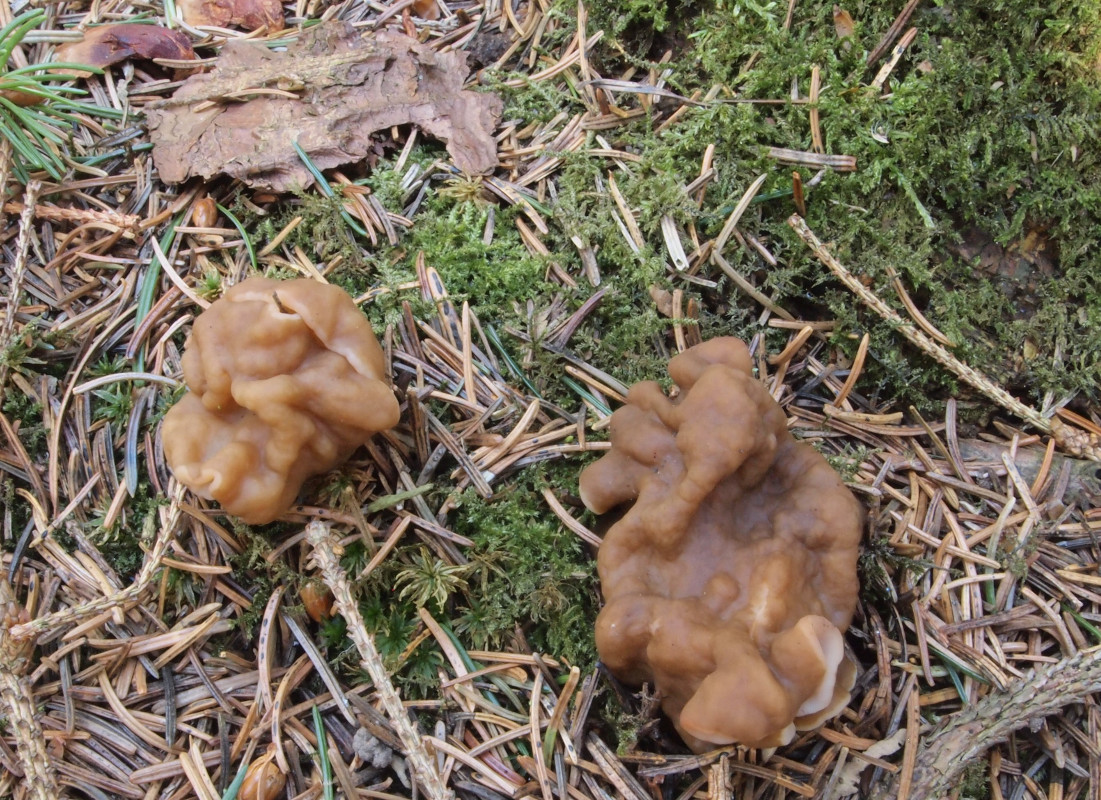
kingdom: Fungi
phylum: Ascomycota
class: Pezizomycetes
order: Pezizales
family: Discinaceae
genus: Gyromitra
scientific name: Gyromitra gigas
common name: kæmpe-stenmorkel
